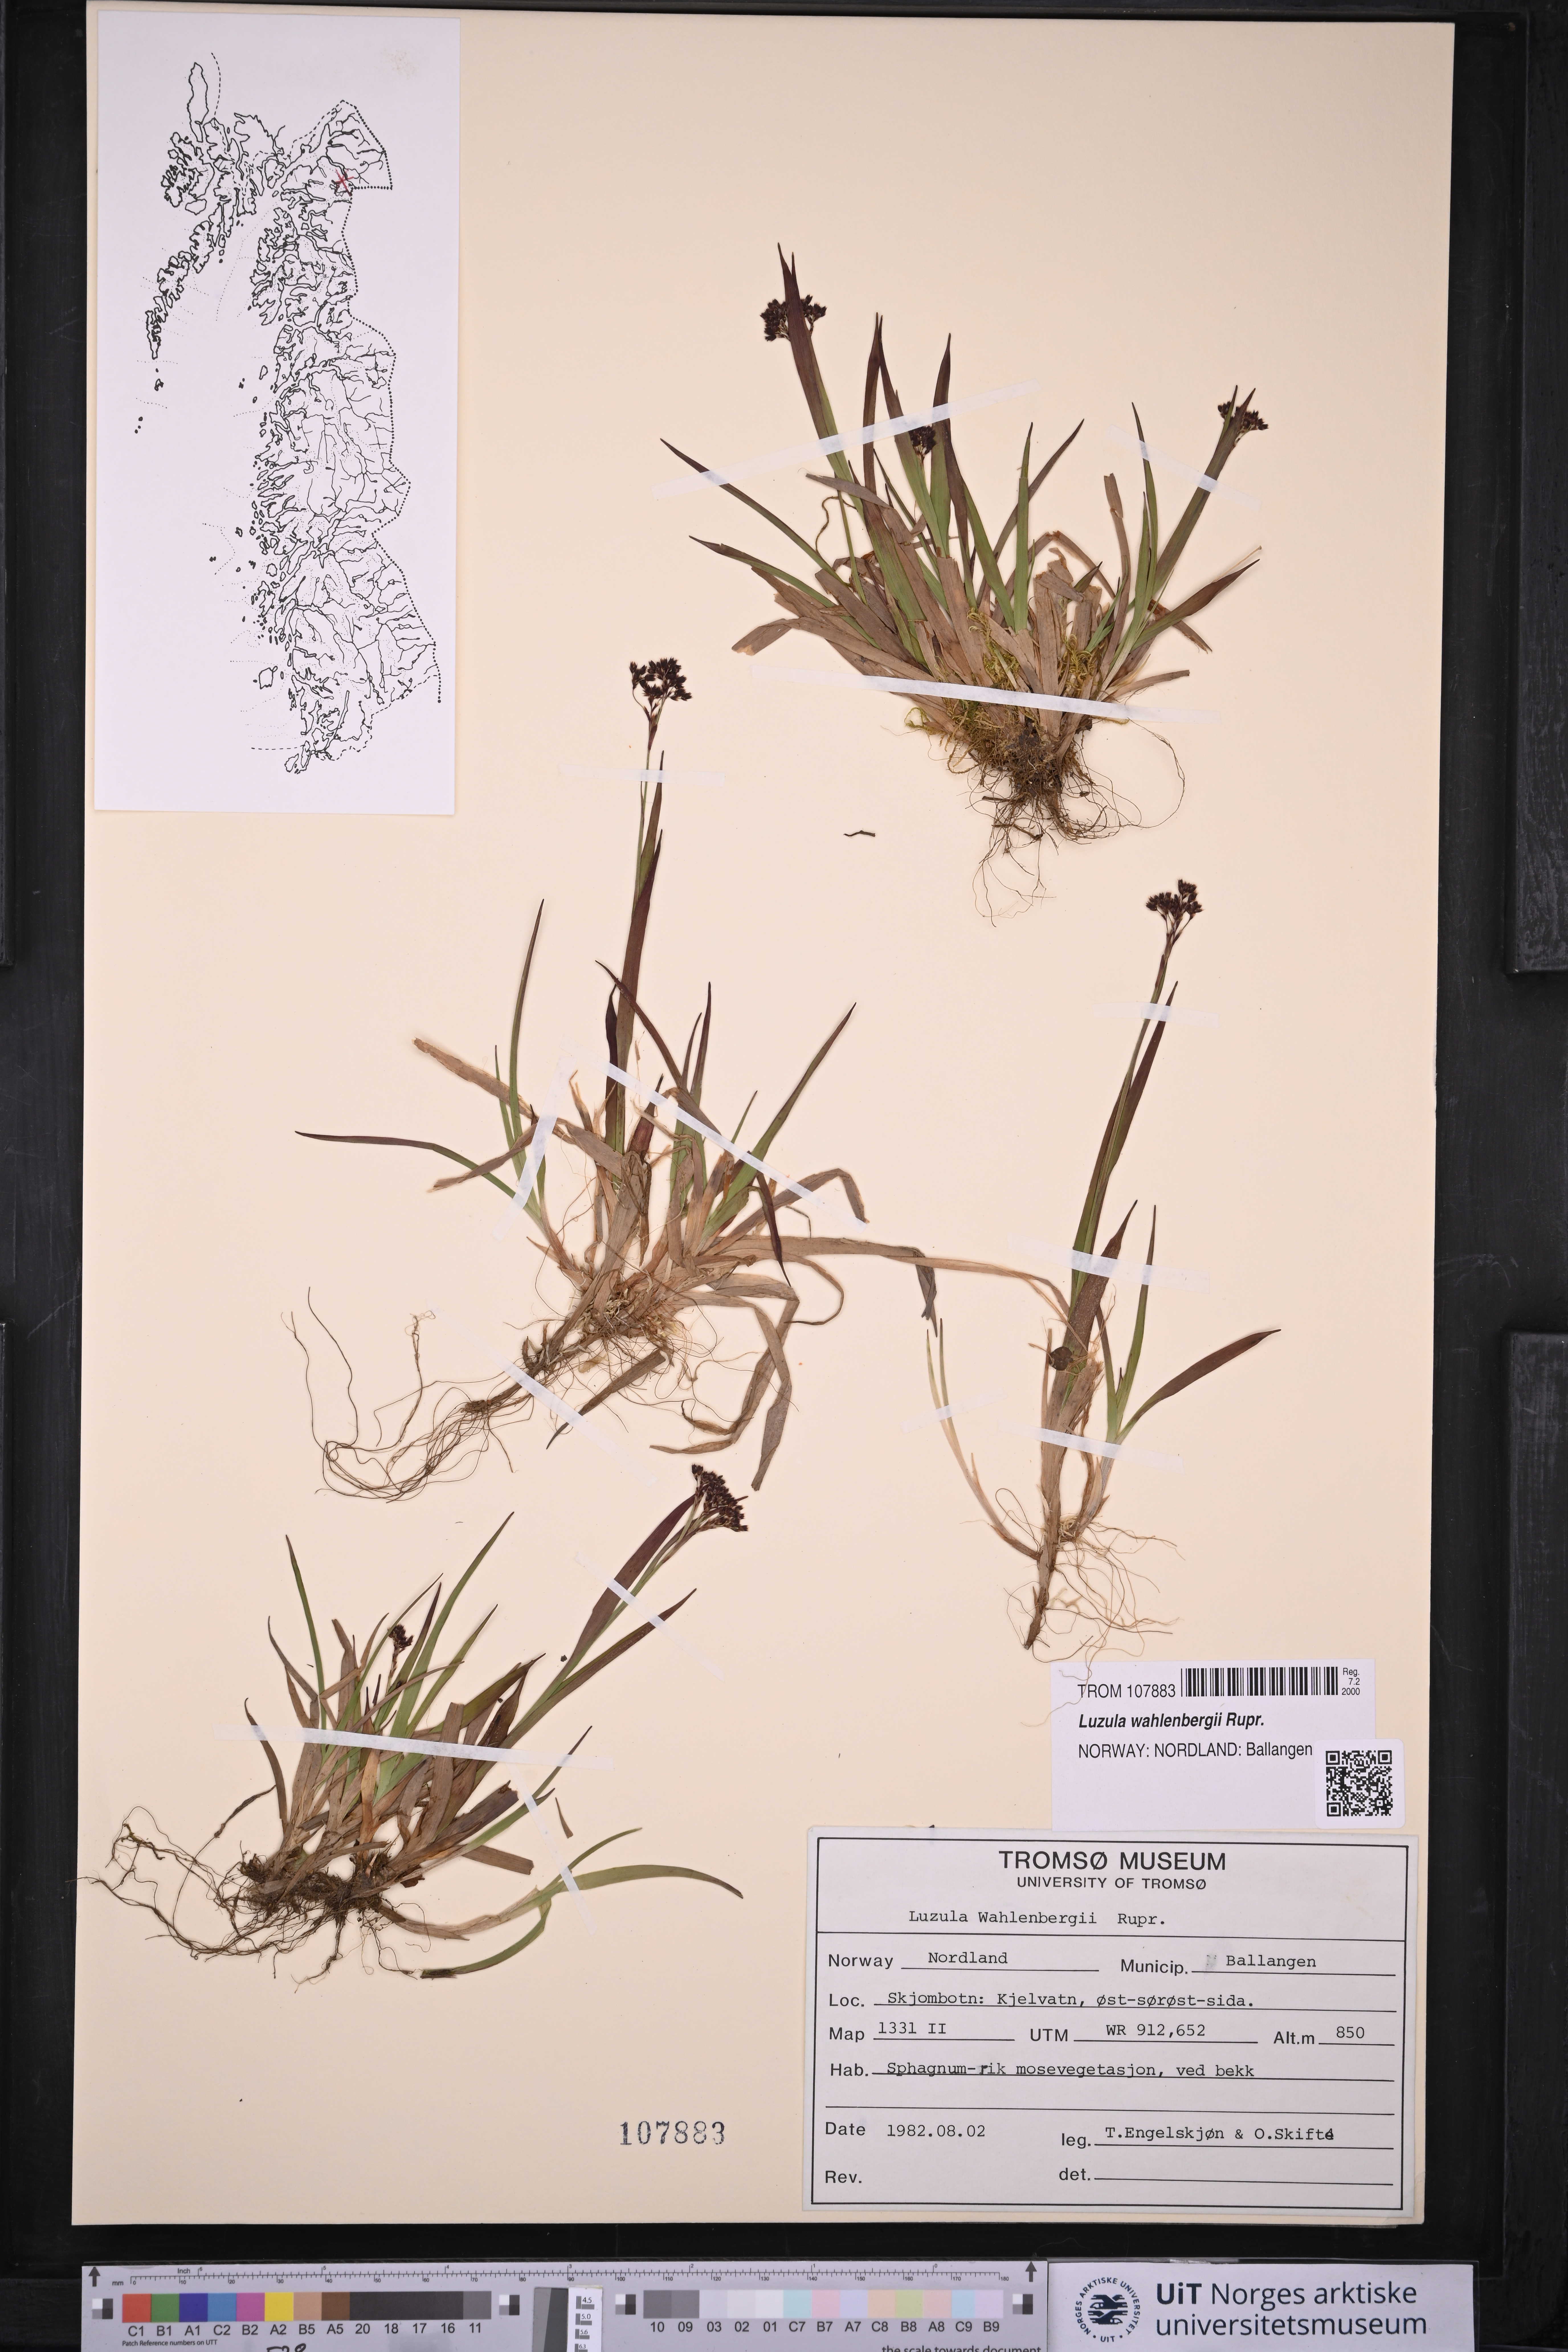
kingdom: Plantae
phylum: Tracheophyta
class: Liliopsida
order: Poales
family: Juncaceae
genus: Luzula
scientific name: Luzula wahlenbergii
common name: Wahlenberg's wood-rush
